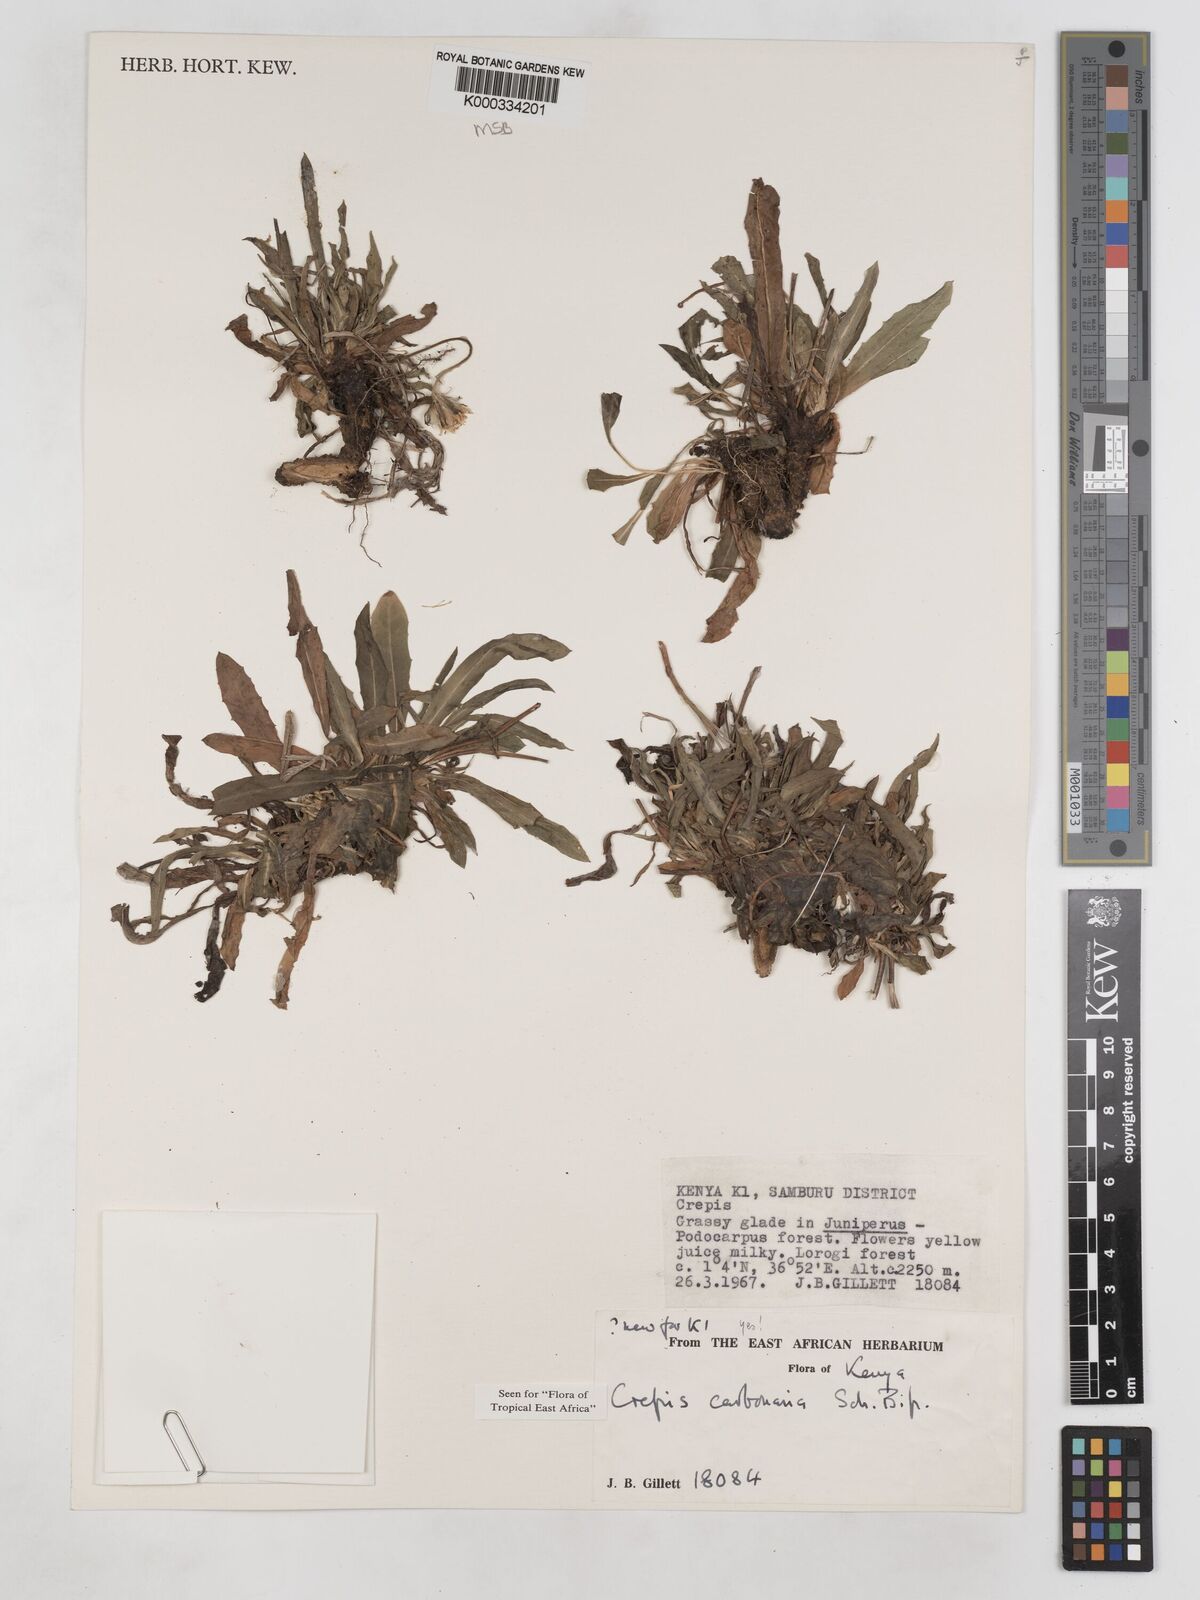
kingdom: Plantae
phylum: Tracheophyta
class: Magnoliopsida
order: Asterales
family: Asteraceae
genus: Crepis
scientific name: Crepis carbonaria
